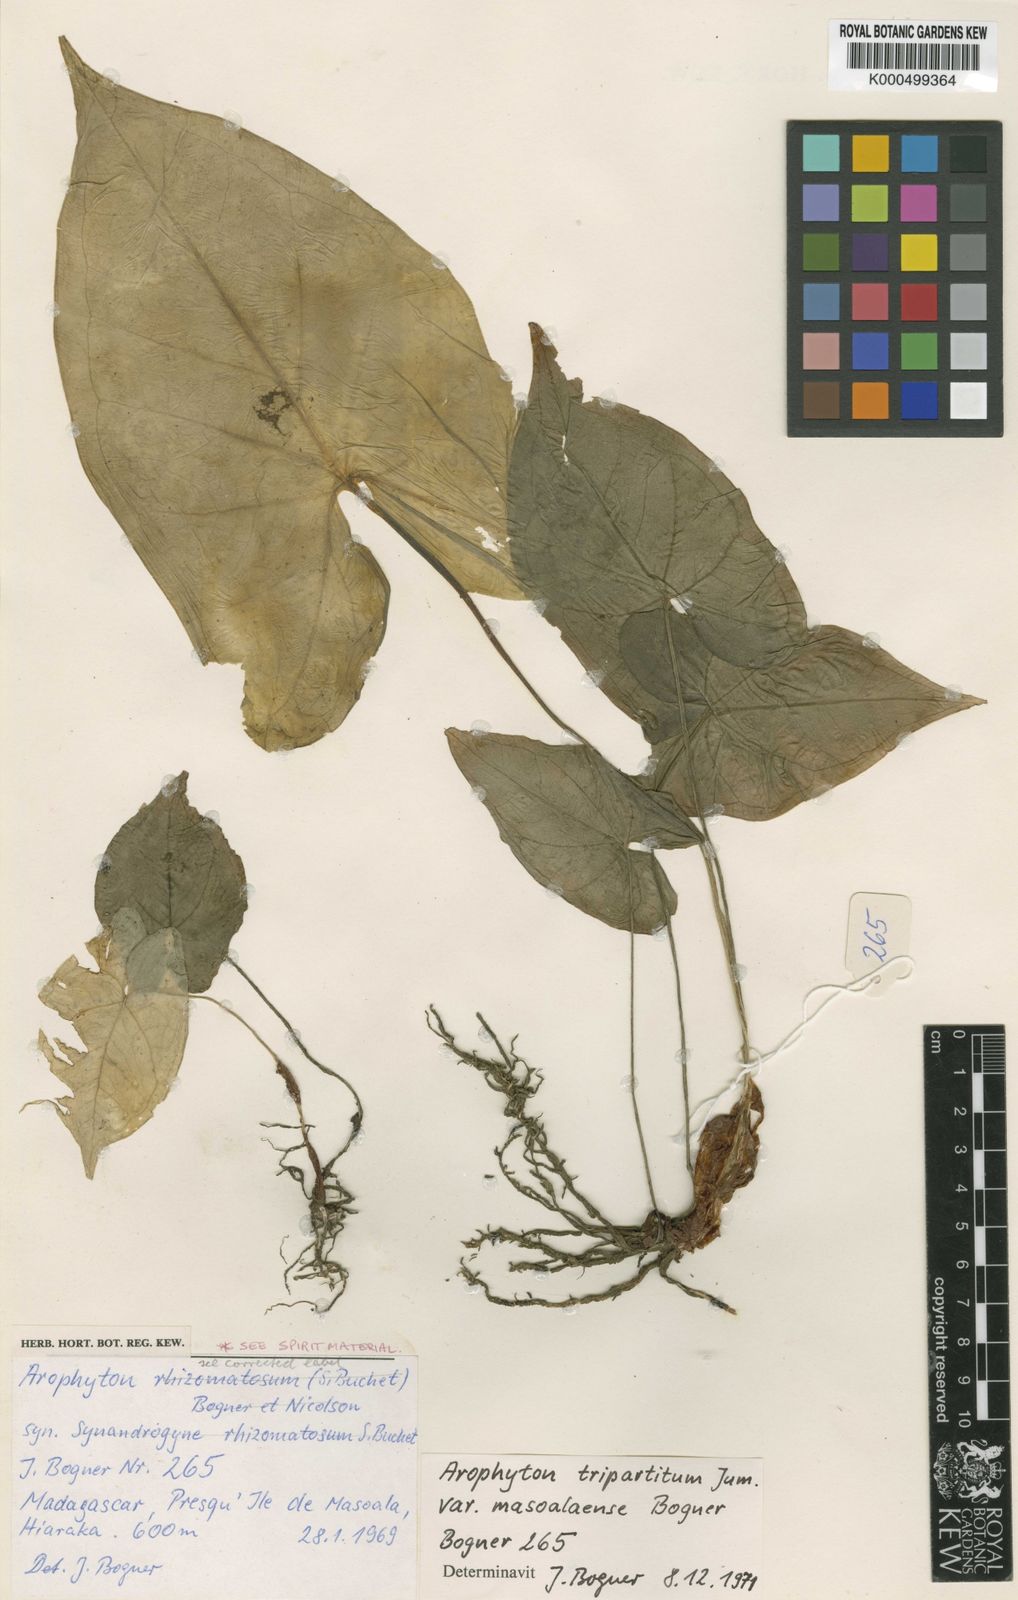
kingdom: Plantae
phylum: Tracheophyta
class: Liliopsida
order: Alismatales
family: Araceae
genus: Arophyton
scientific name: Arophyton tripartitum
